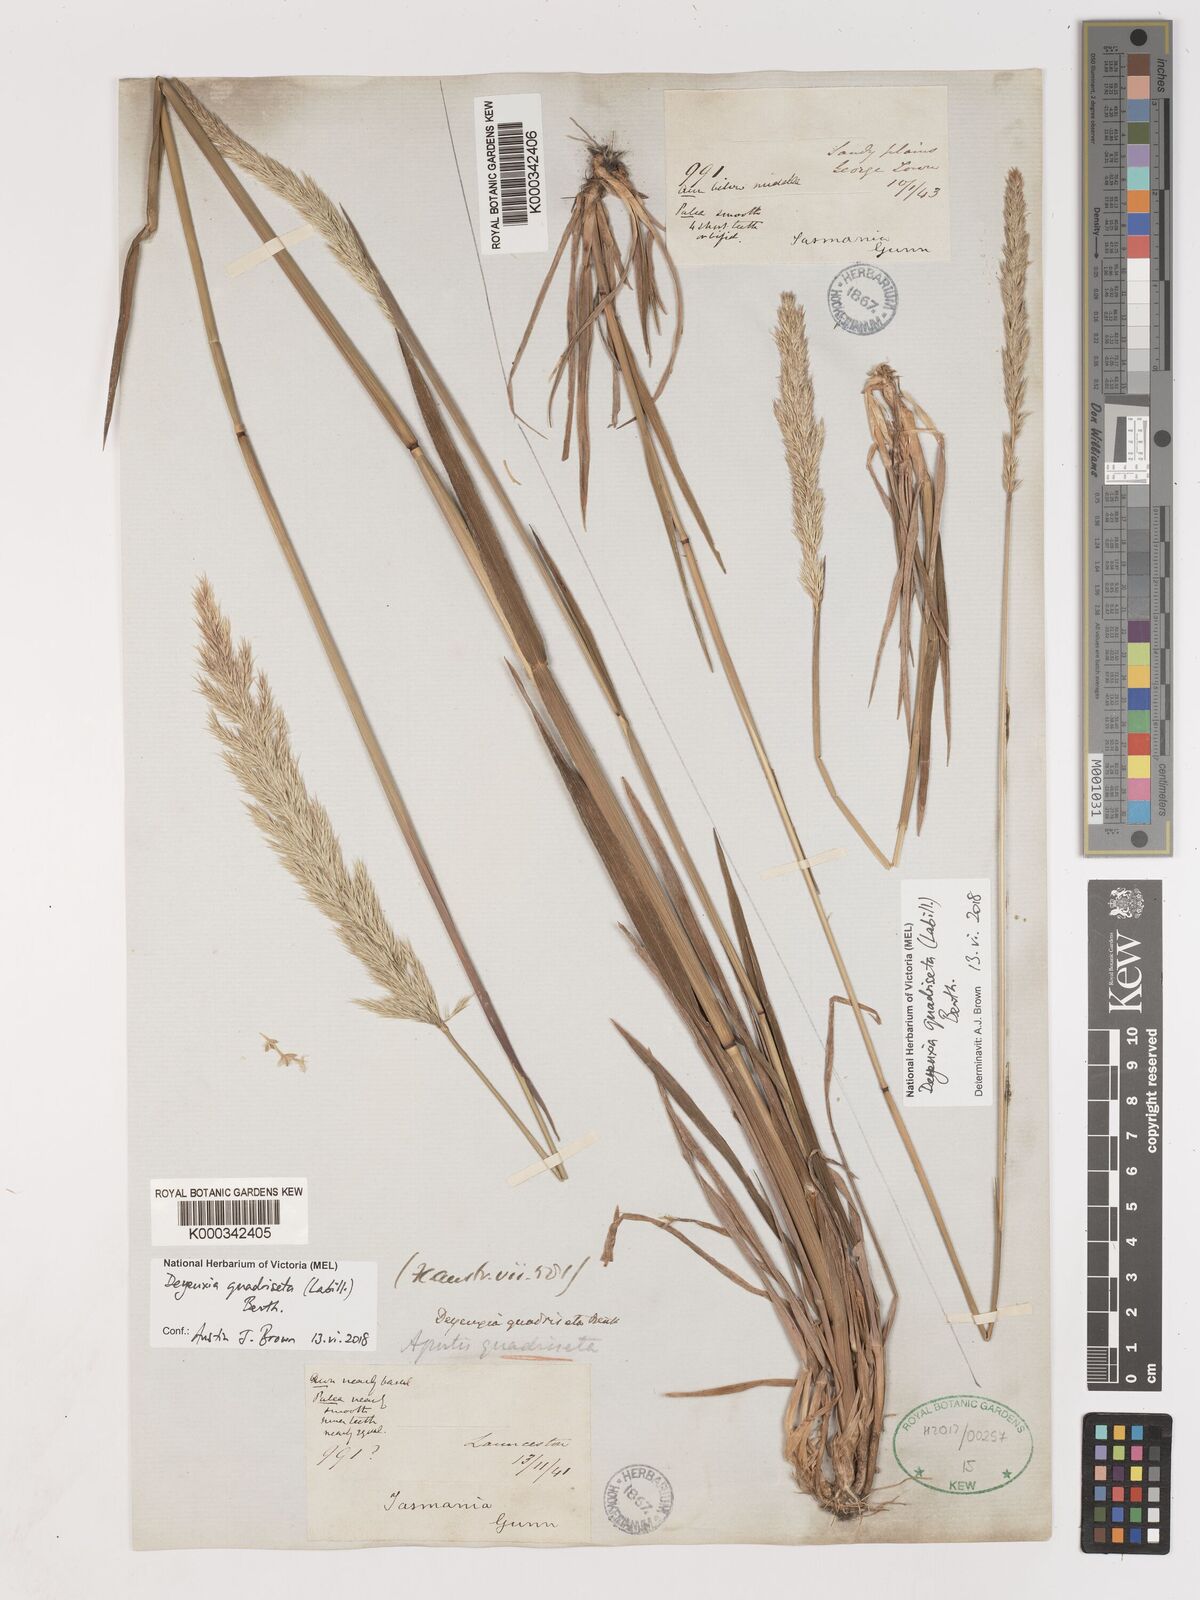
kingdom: Plantae
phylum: Tracheophyta
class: Liliopsida
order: Poales
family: Poaceae
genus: Calamagrostis
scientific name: Calamagrostis quadriseta
